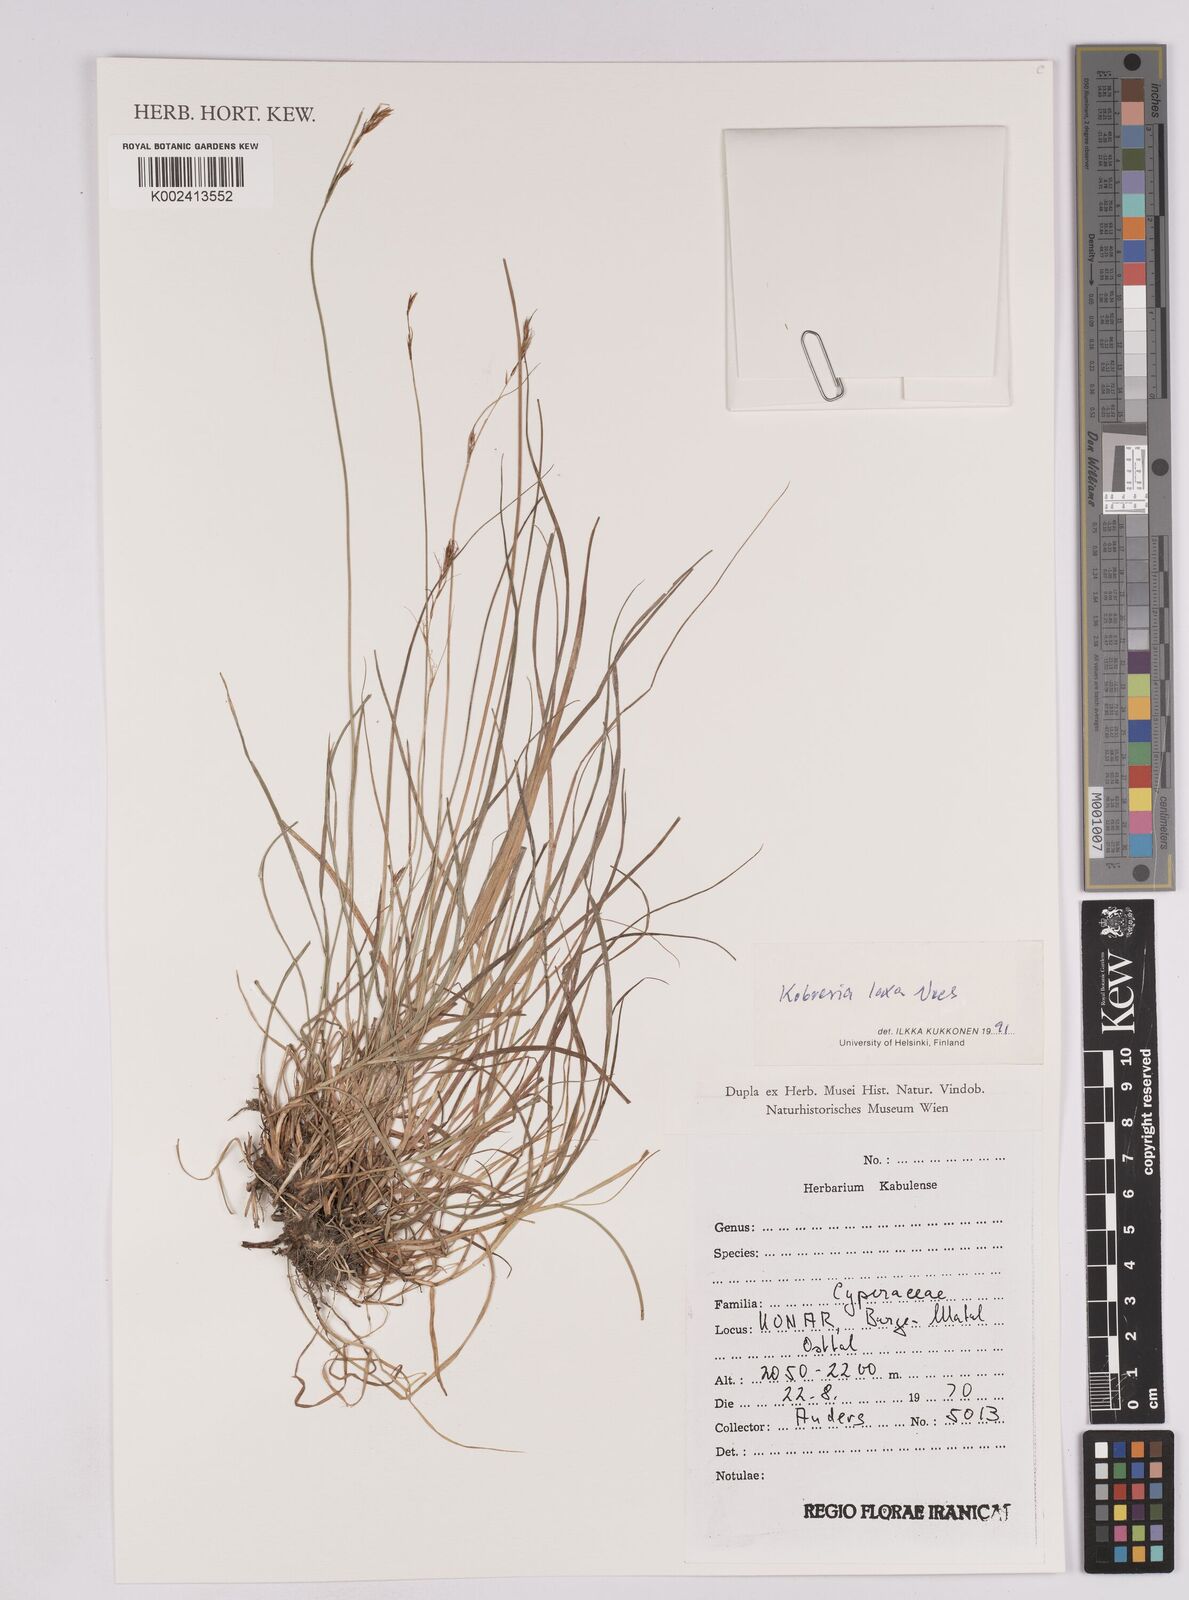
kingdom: Plantae
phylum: Tracheophyta
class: Liliopsida
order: Poales
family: Cyperaceae
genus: Carex
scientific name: Carex pseudolaxa
